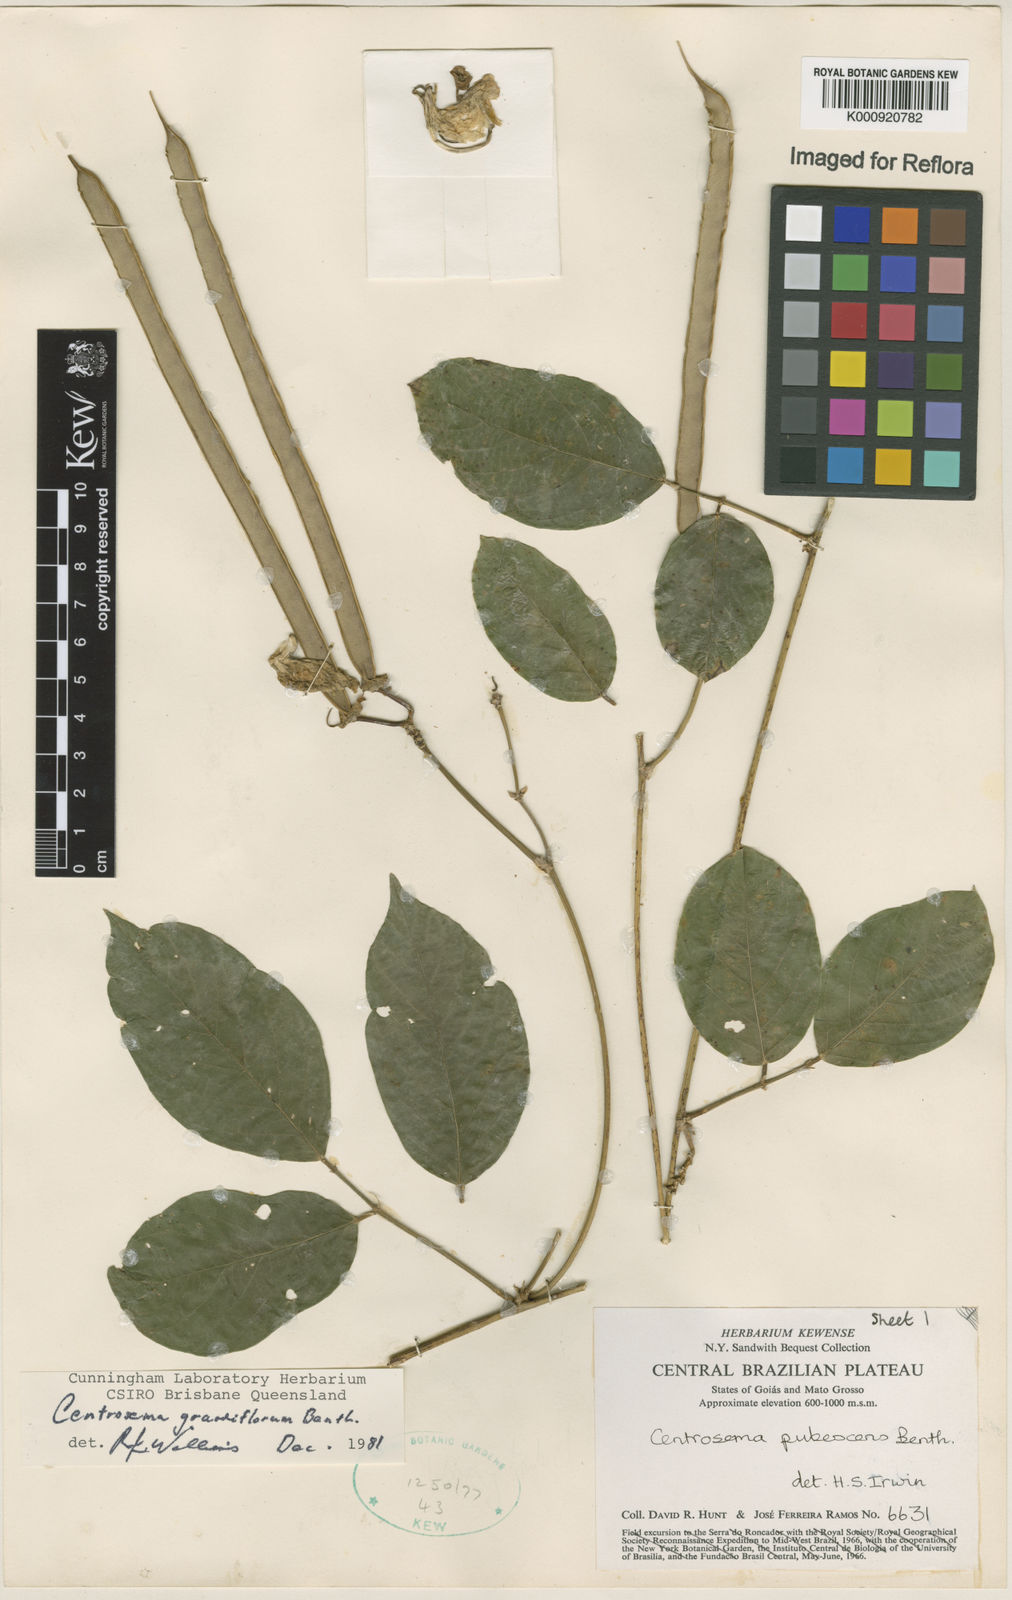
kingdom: Plantae
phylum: Tracheophyta
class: Magnoliopsida
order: Fabales
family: Fabaceae
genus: Centrosema
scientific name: Centrosema grandiflorum
